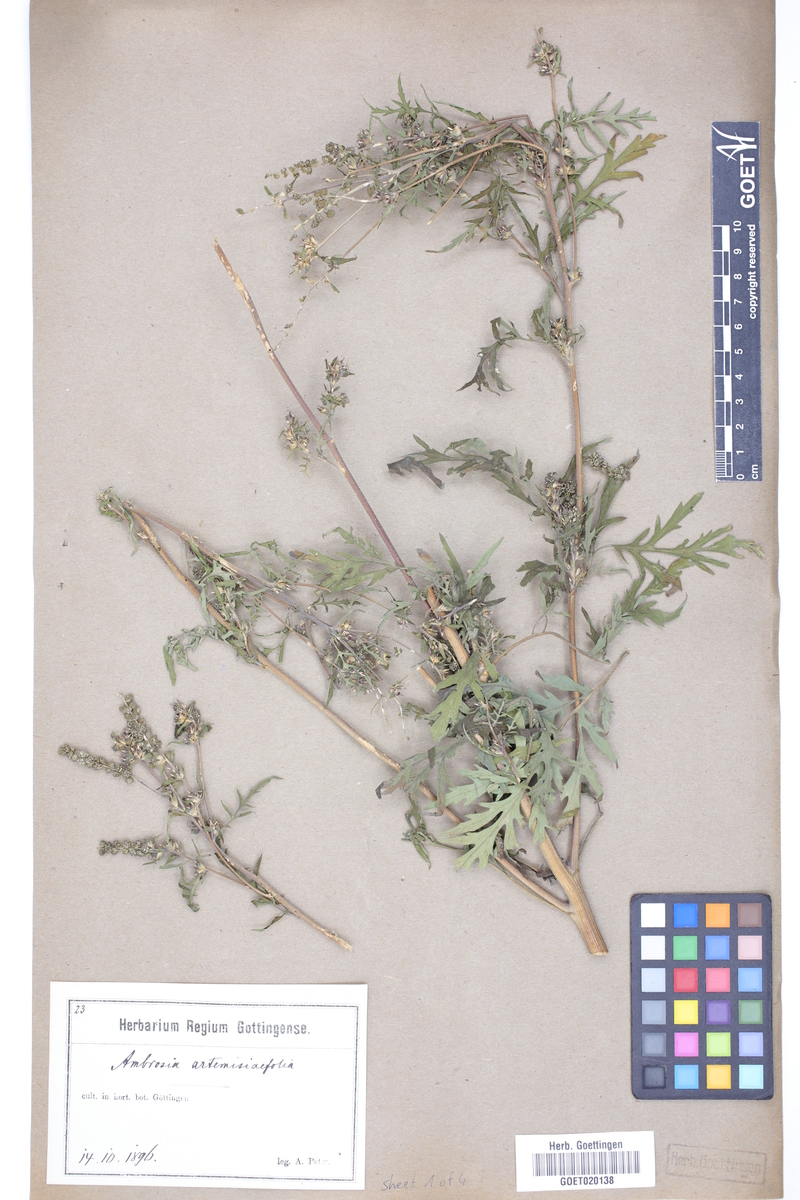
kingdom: Plantae
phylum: Tracheophyta
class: Magnoliopsida
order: Asterales
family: Asteraceae
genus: Ambrosia
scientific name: Ambrosia artemisiifolia
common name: Annual ragweed
